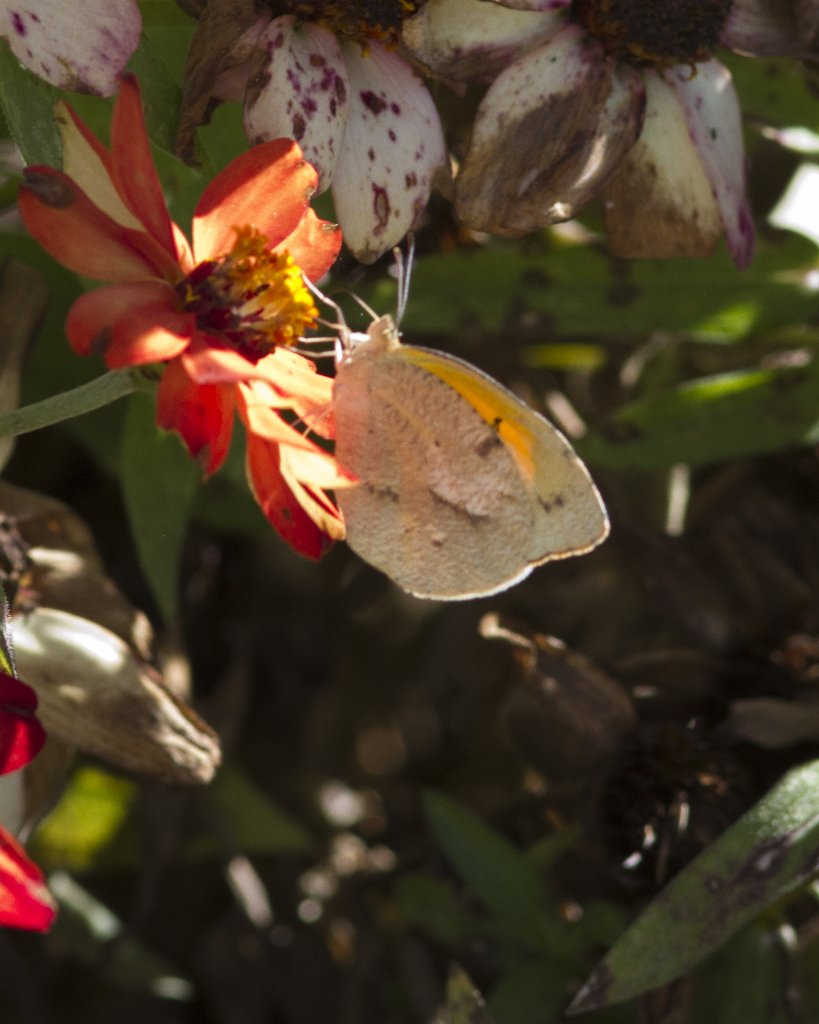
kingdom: Animalia
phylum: Arthropoda
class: Insecta
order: Lepidoptera
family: Pieridae
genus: Abaeis
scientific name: Abaeis nicippe
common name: Sleepy Orange
